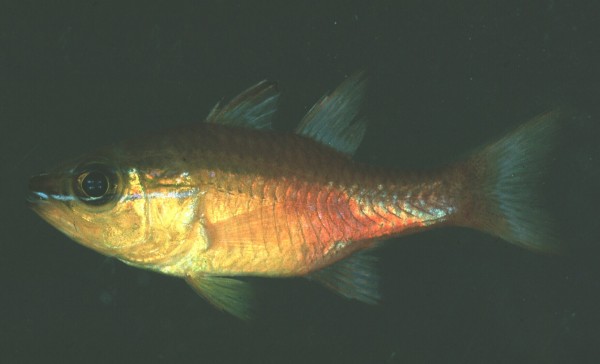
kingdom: Animalia
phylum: Chordata
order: Perciformes
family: Apogonidae
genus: Ostorhinchus
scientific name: Ostorhinchus apogonoides
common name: Goldbelly cardinalfish
